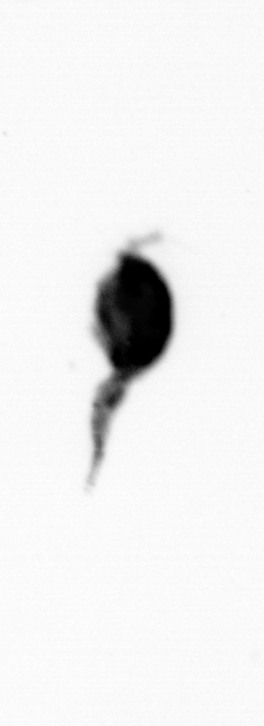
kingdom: Animalia
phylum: Arthropoda
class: Copepoda
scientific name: Copepoda
